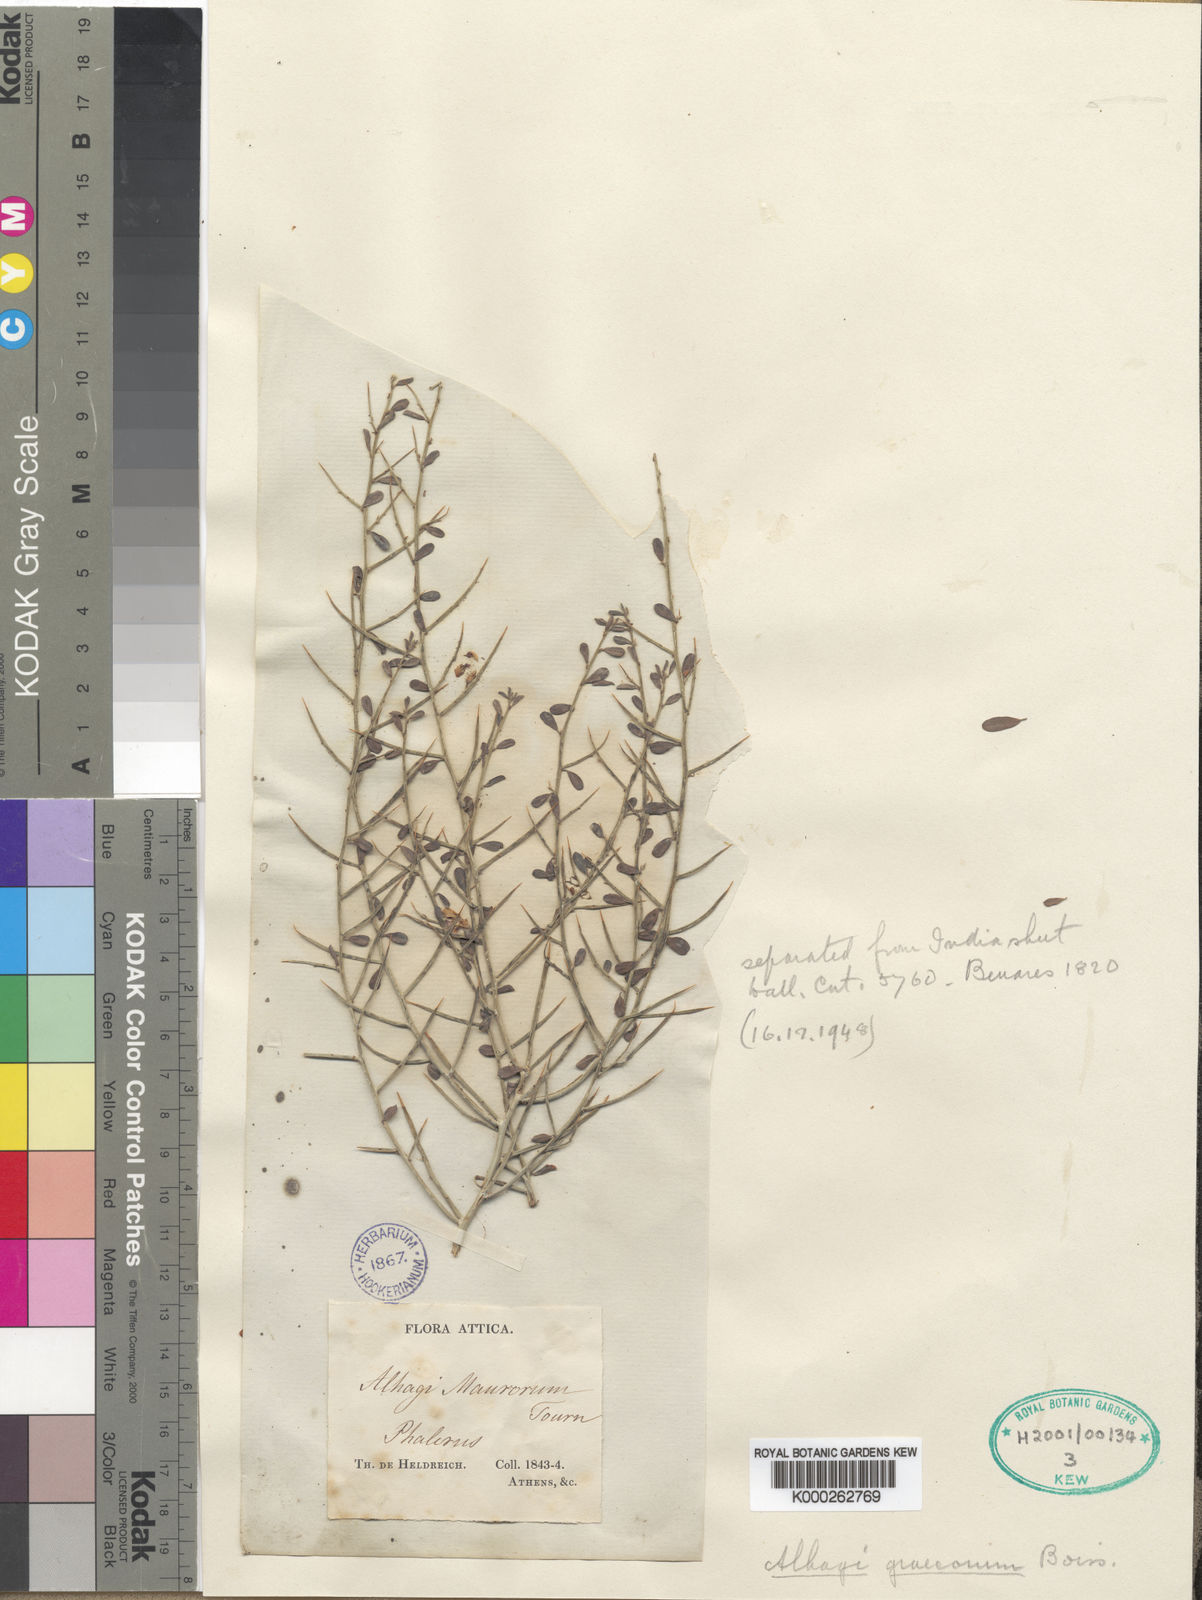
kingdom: Plantae
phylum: Tracheophyta
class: Magnoliopsida
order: Fabales
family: Fabaceae
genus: Alhagi
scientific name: Alhagi graecorum
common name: Persian mannaplant
